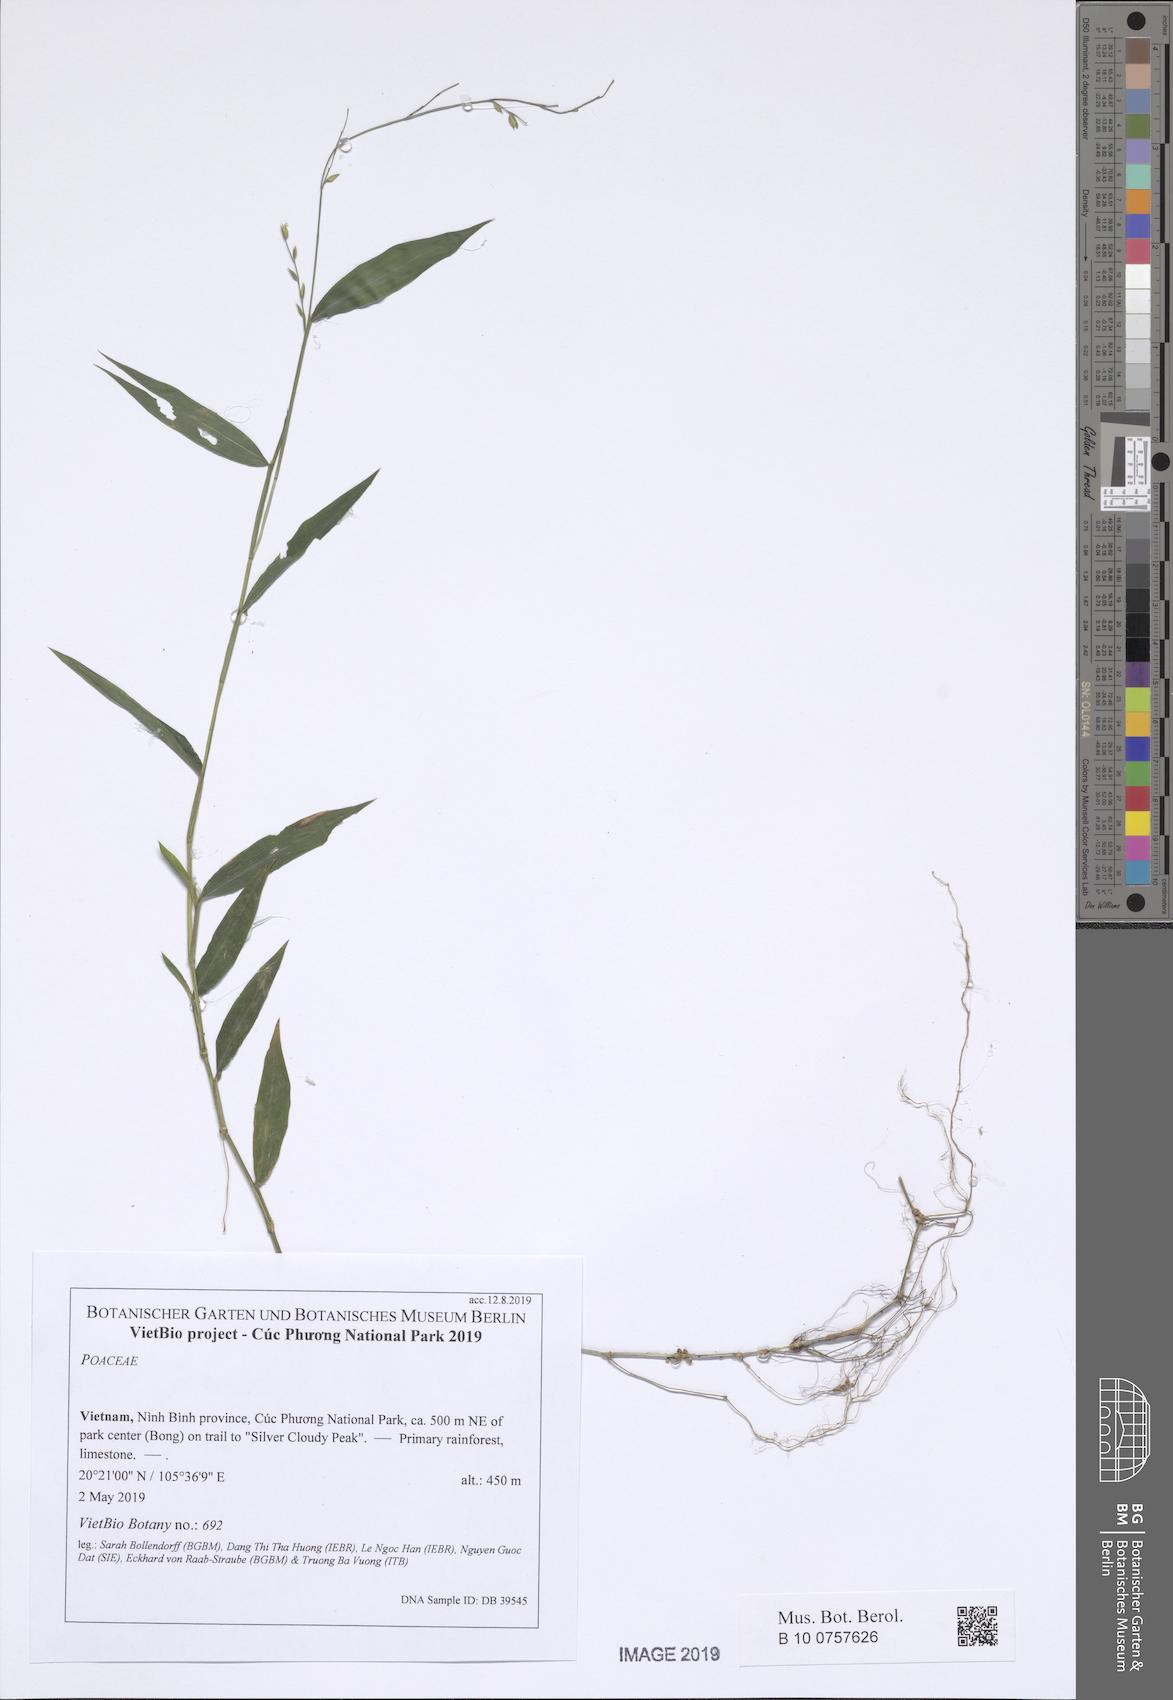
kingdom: Plantae
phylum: Tracheophyta
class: Liliopsida
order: Poales
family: Poaceae
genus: Acroceras
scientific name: Acroceras zizanioides
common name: Oat grass
